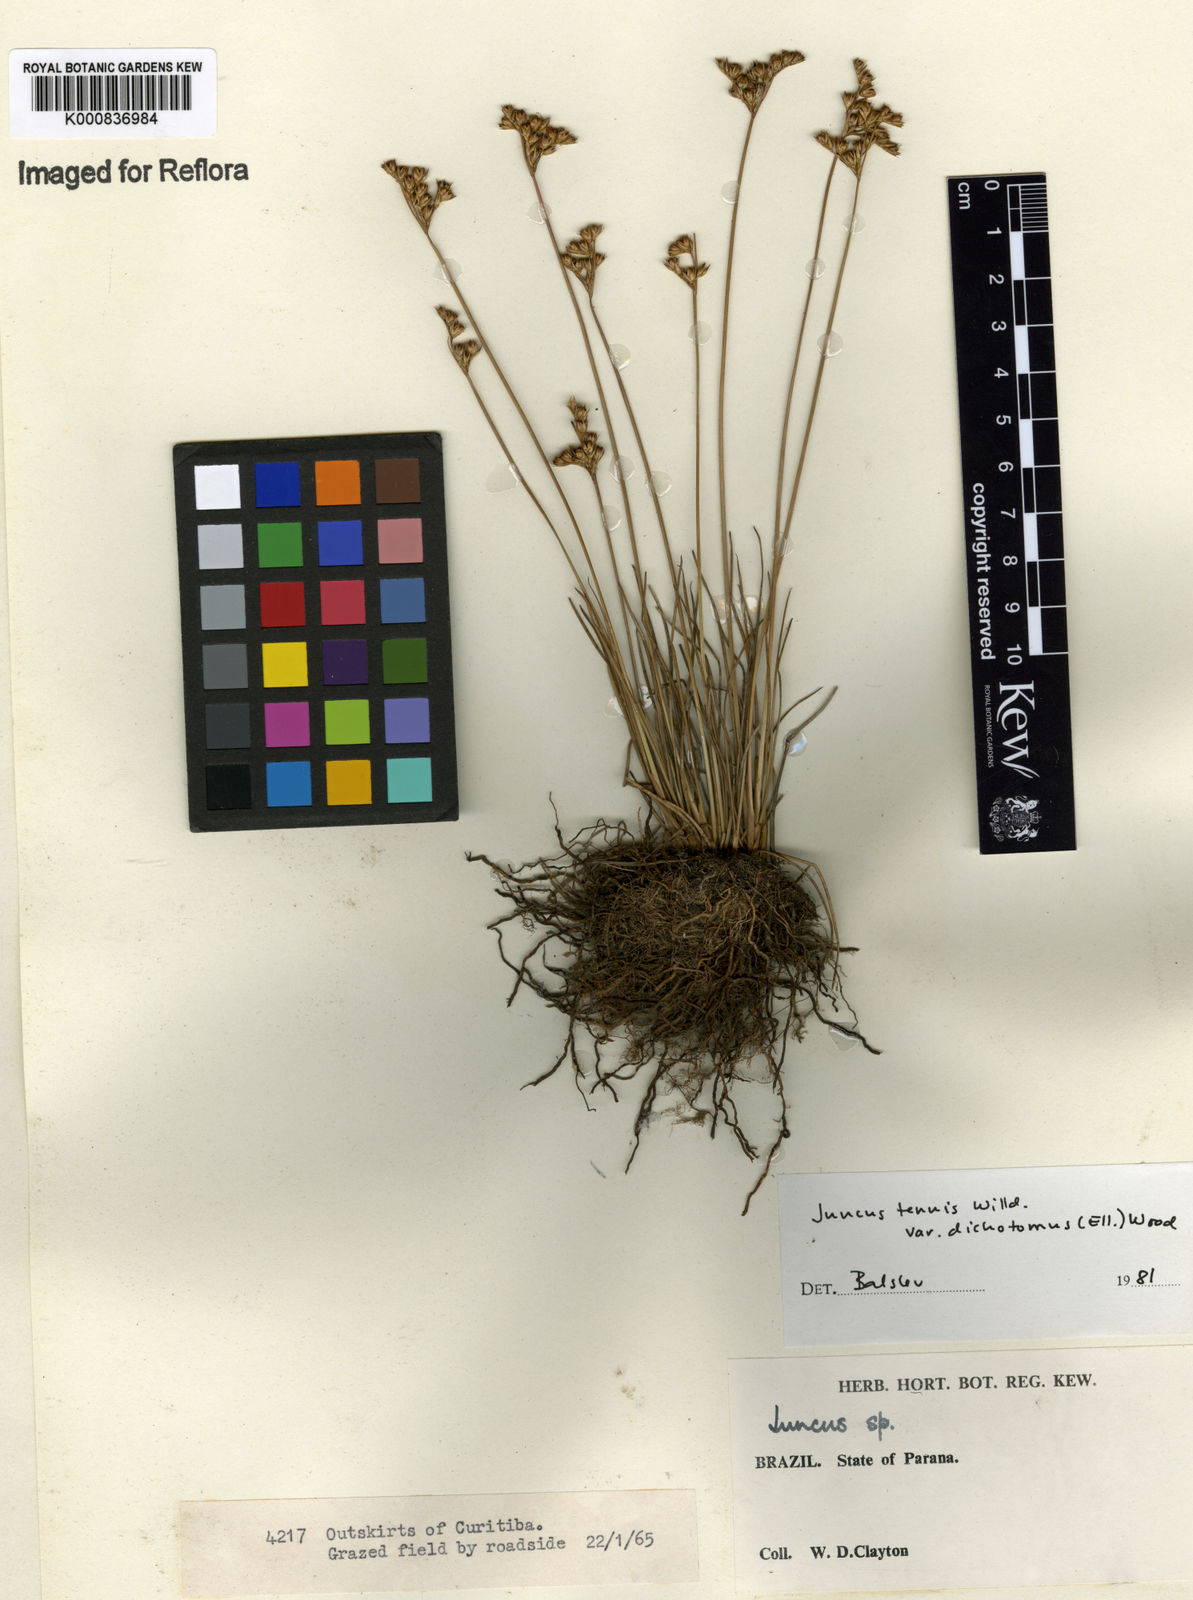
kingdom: Plantae
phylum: Tracheophyta
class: Liliopsida
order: Poales
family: Juncaceae
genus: Juncus
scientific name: Juncus
